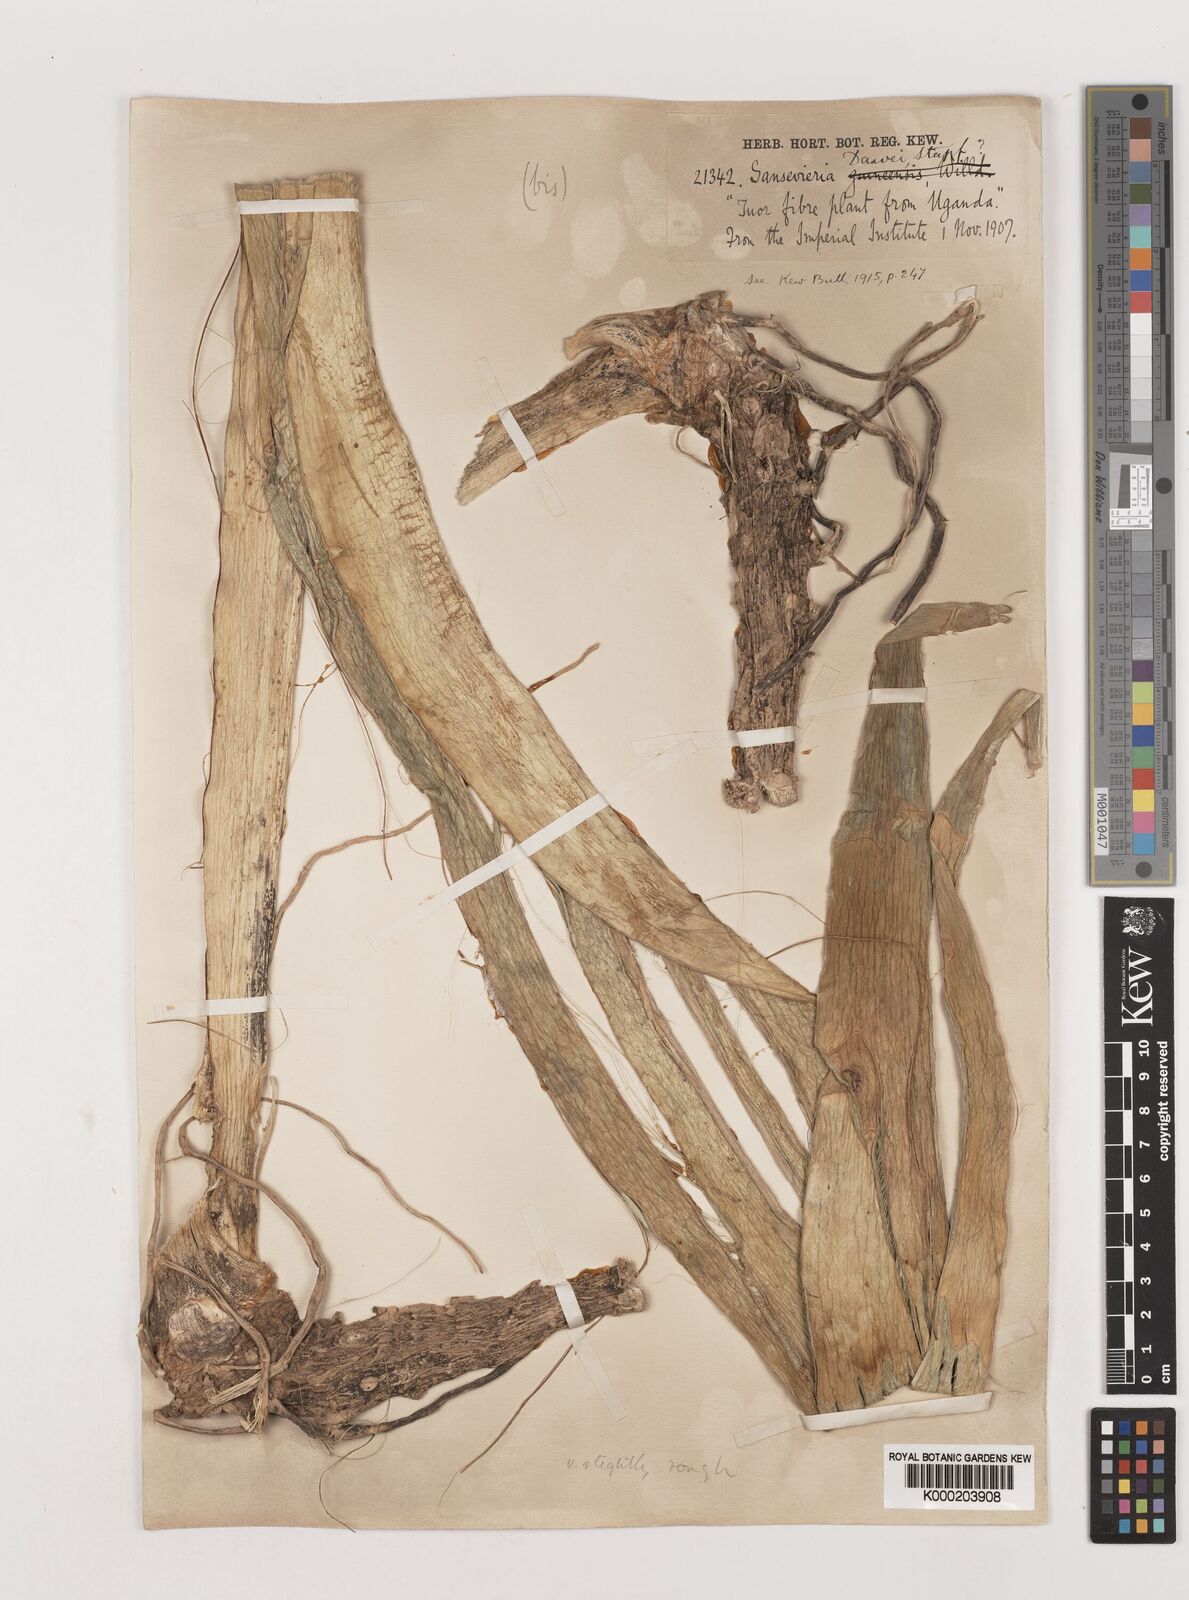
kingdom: Plantae
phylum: Tracheophyta
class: Liliopsida
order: Asparagales
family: Asparagaceae
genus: Dracaena
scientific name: Dracaena dawei
